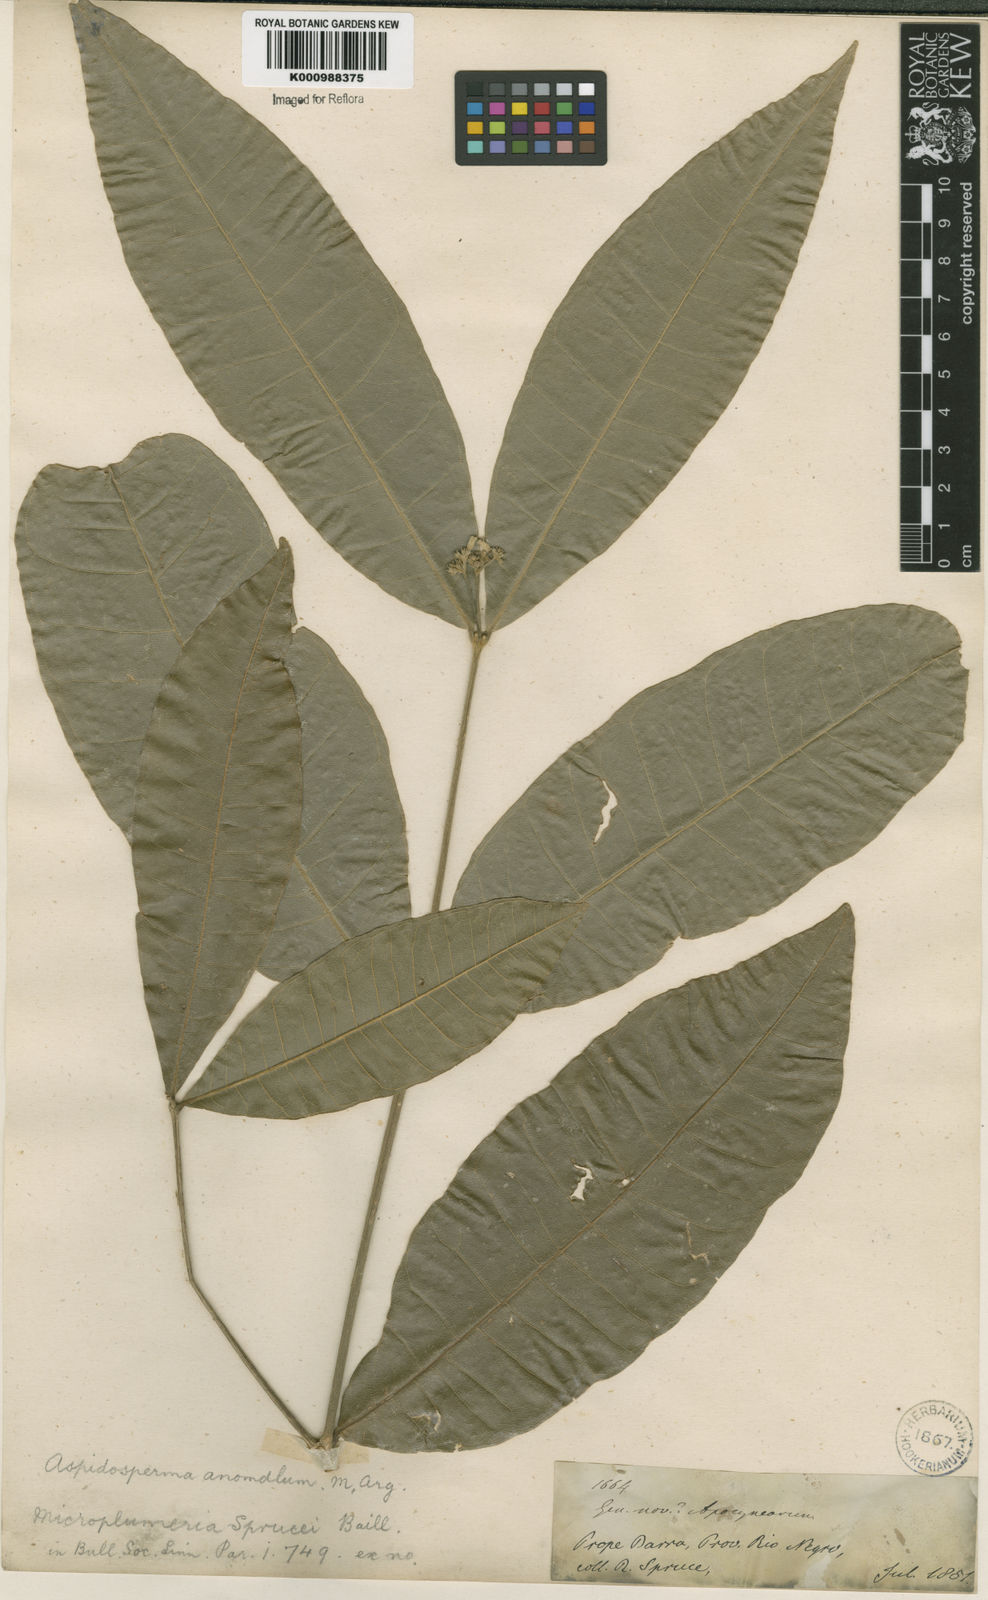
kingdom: Plantae
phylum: Tracheophyta
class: Magnoliopsida
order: Gentianales
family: Apocynaceae
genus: Microplumeria
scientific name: Microplumeria
